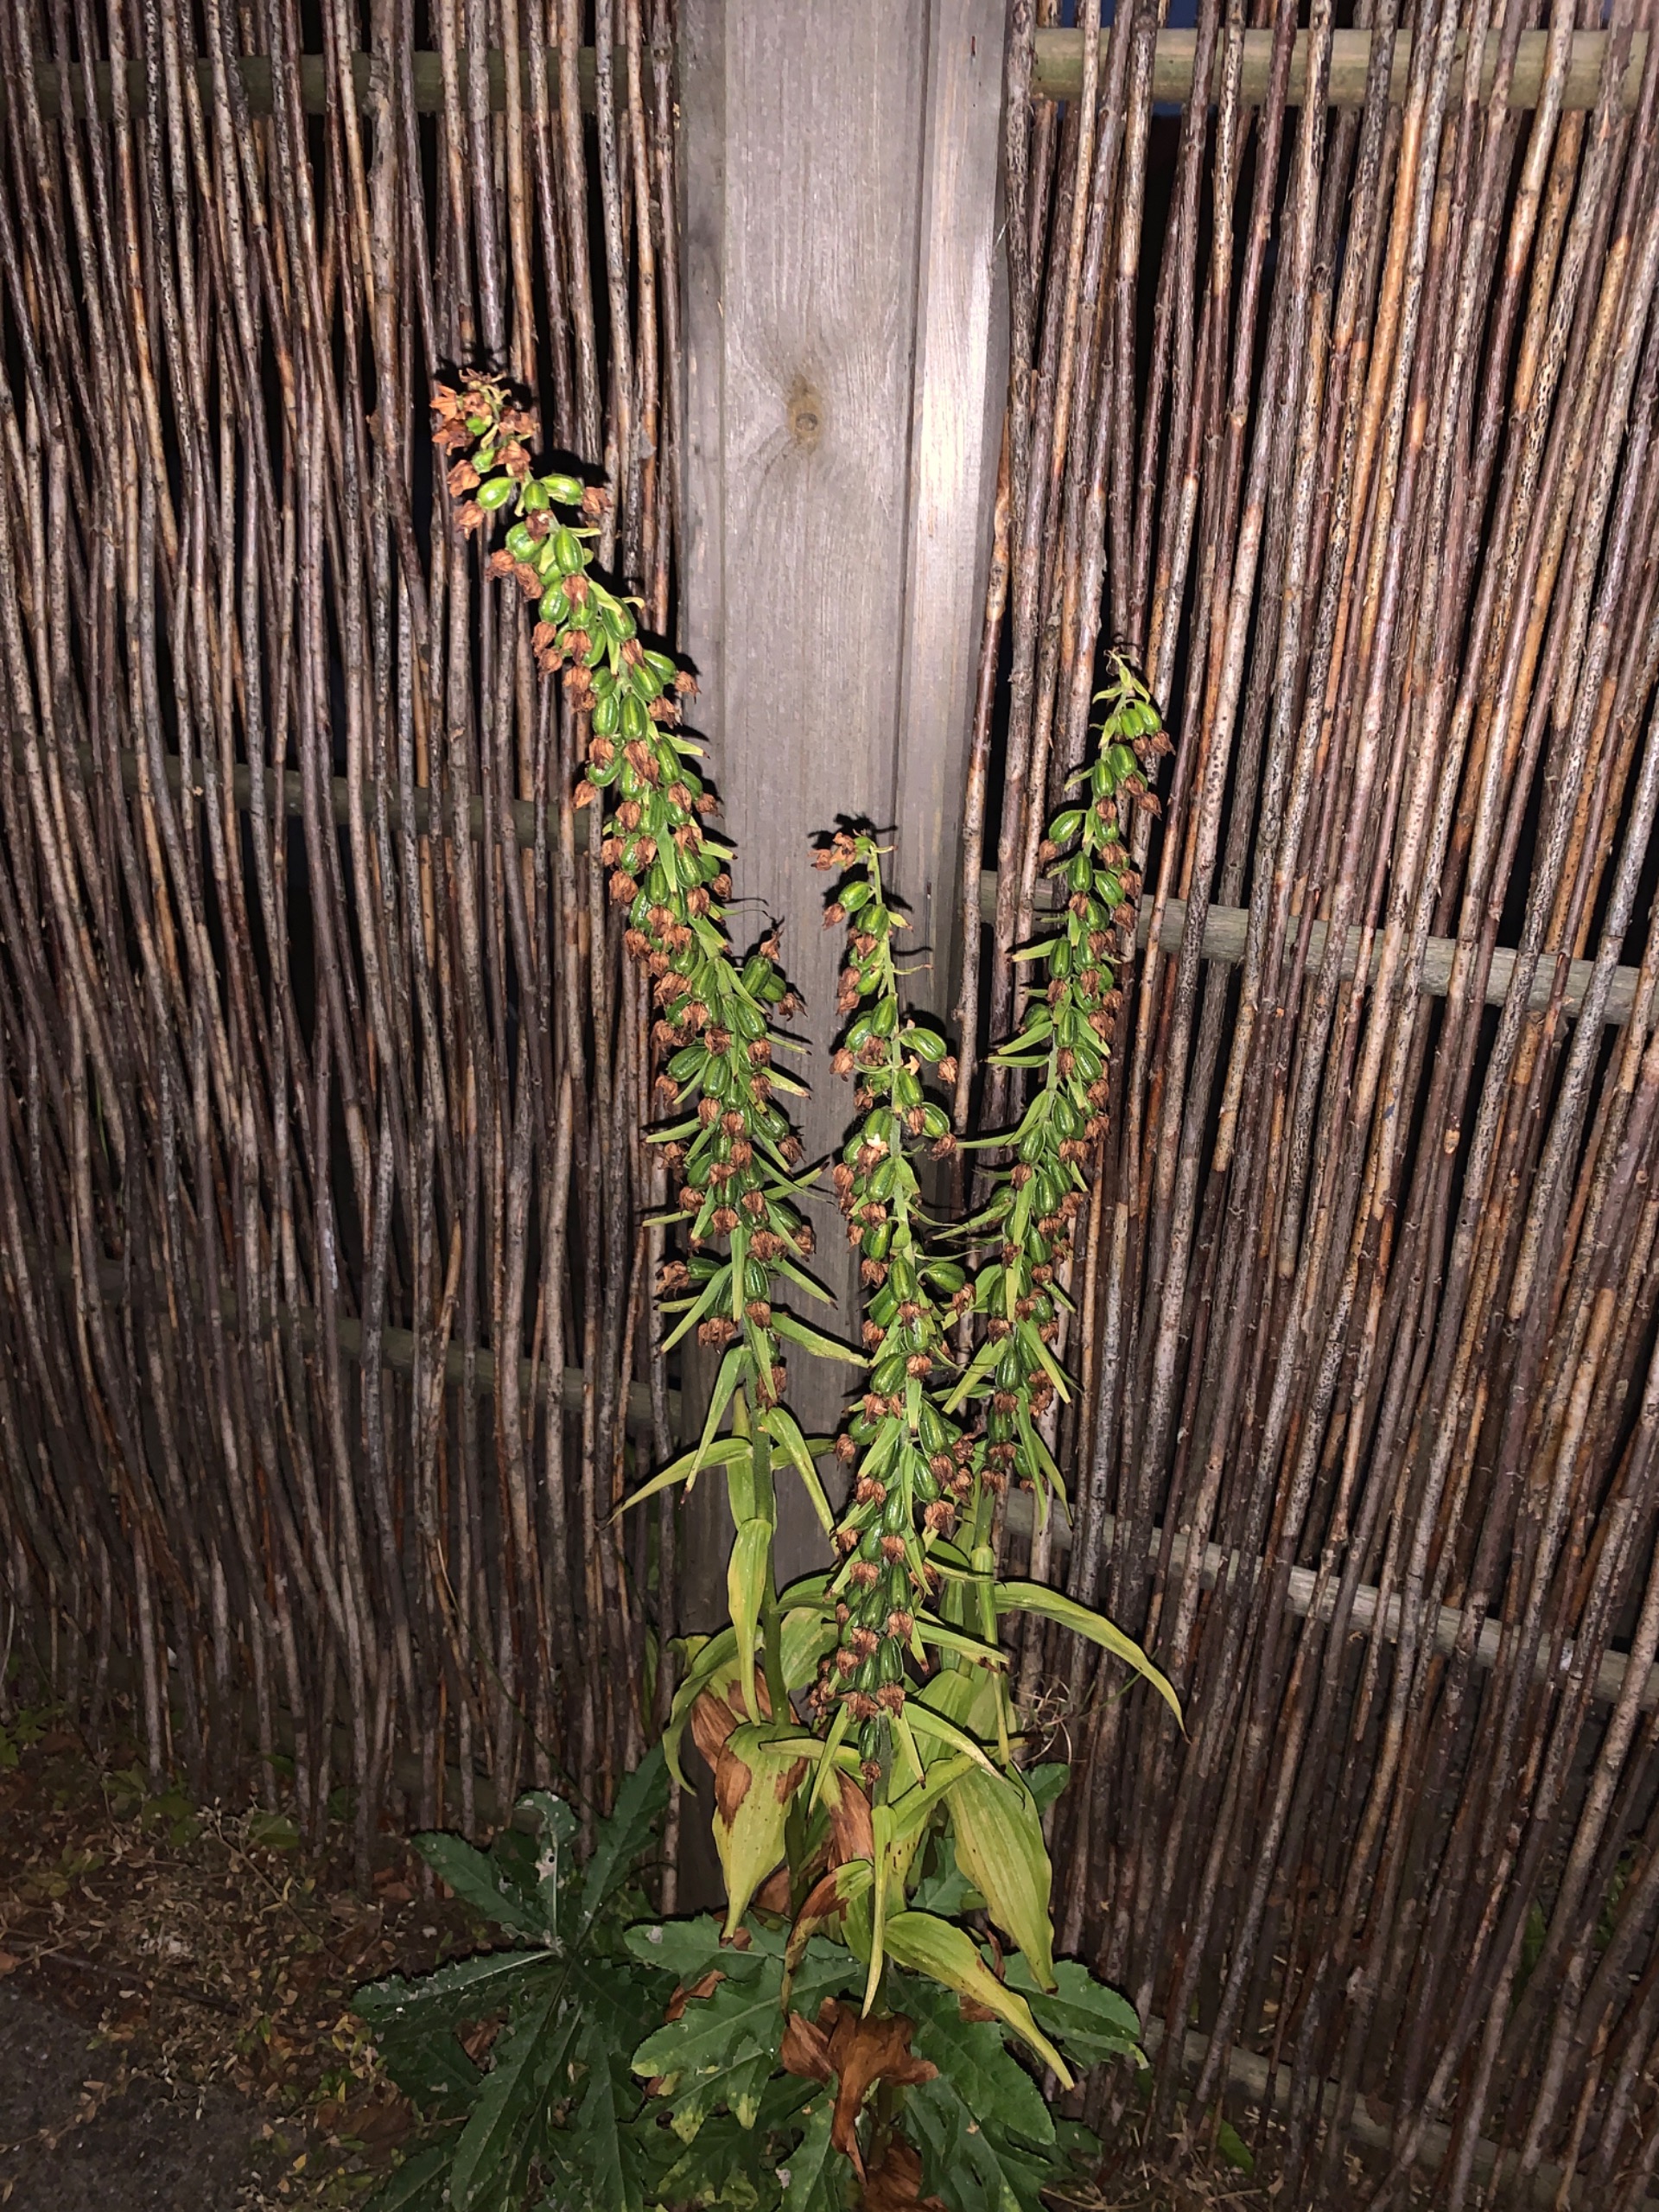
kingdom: Plantae
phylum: Tracheophyta
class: Liliopsida
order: Asparagales
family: Orchidaceae
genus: Epipactis
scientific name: Epipactis helleborine
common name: Skov-hullæbe
